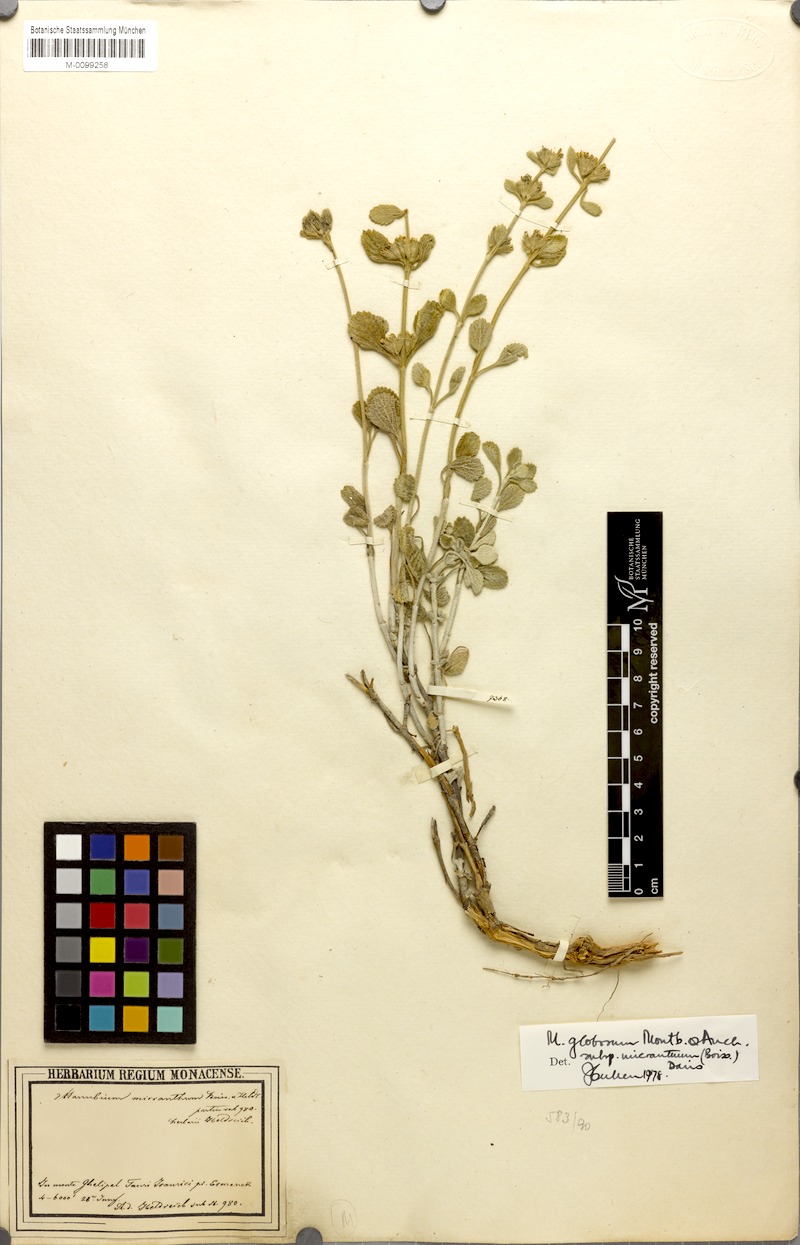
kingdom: Plantae
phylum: Tracheophyta
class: Magnoliopsida
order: Lamiales
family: Lamiaceae
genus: Marrubium
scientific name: Marrubium globosum
